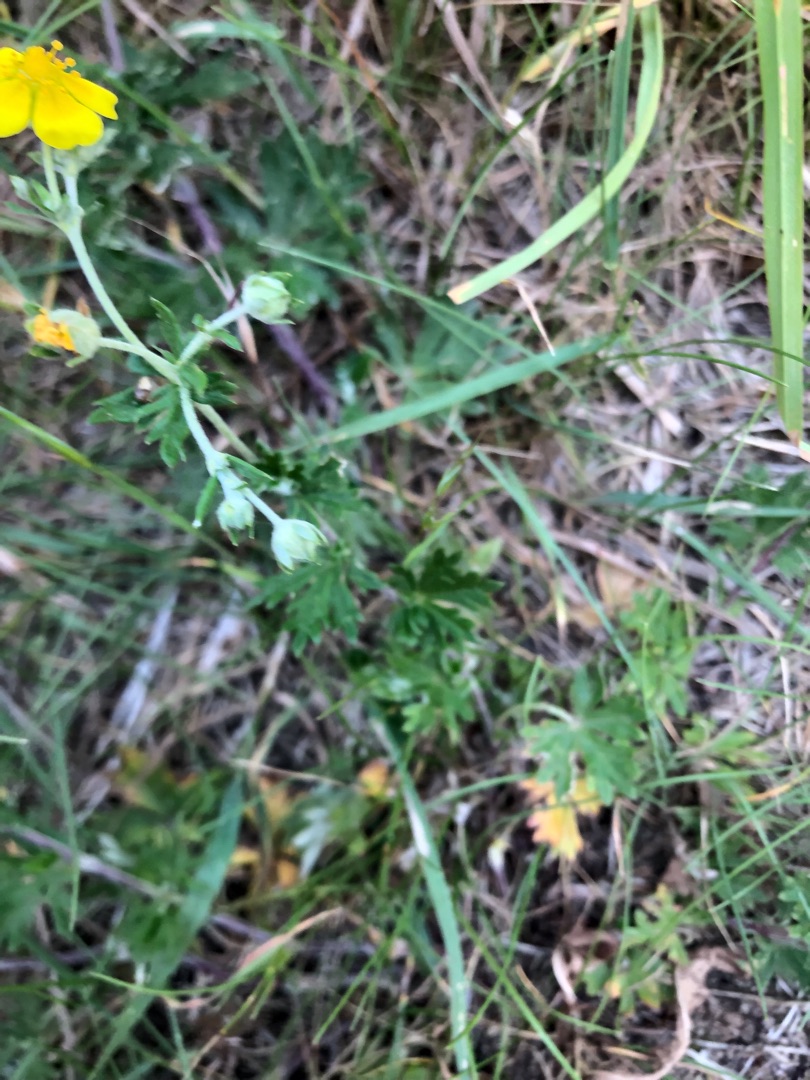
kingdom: Plantae
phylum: Tracheophyta
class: Magnoliopsida
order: Rosales
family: Rosaceae
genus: Potentilla
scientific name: Potentilla argentea
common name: Sølv-potentil
